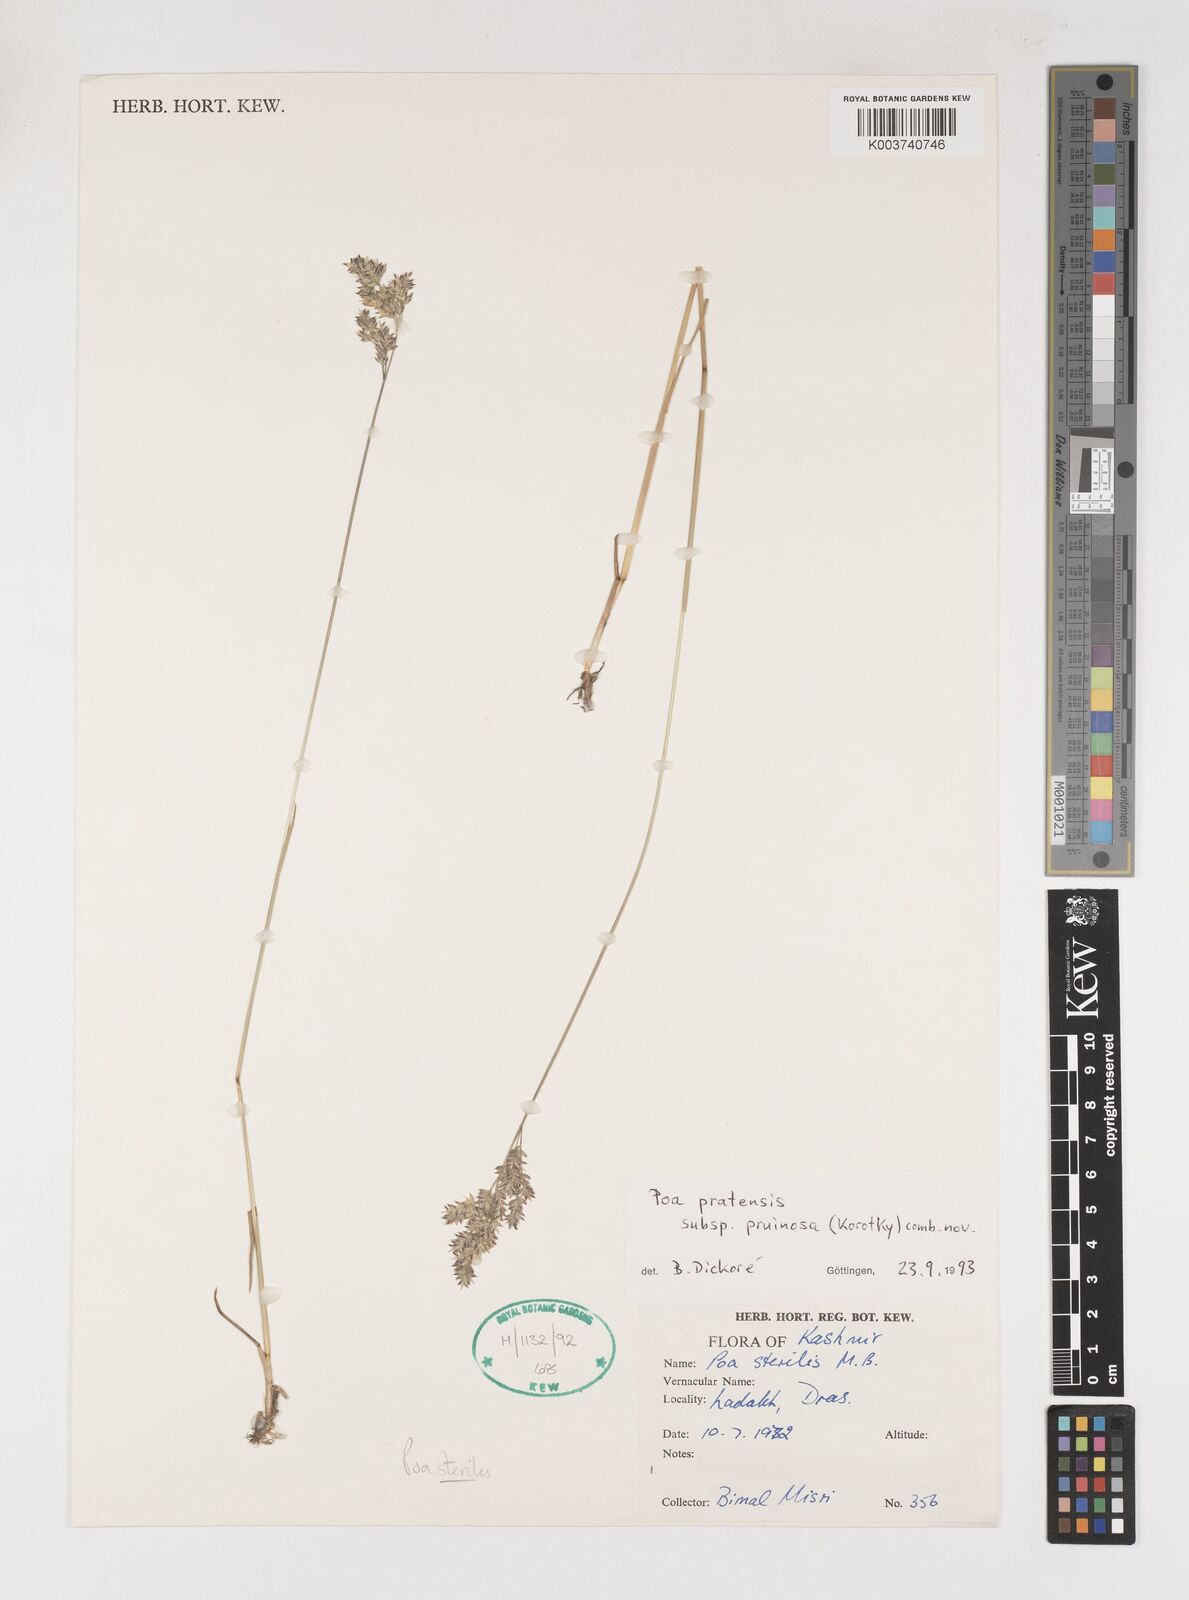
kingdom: Plantae
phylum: Tracheophyta
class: Liliopsida
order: Poales
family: Poaceae
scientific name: Poaceae
